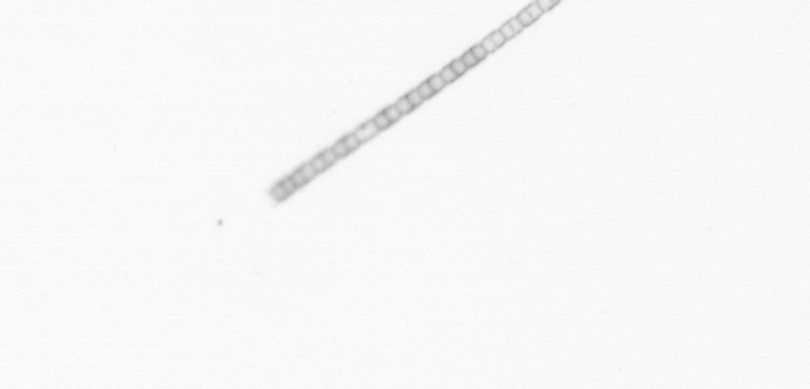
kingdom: Chromista
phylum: Ochrophyta
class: Bacillariophyceae
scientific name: Bacillariophyceae
